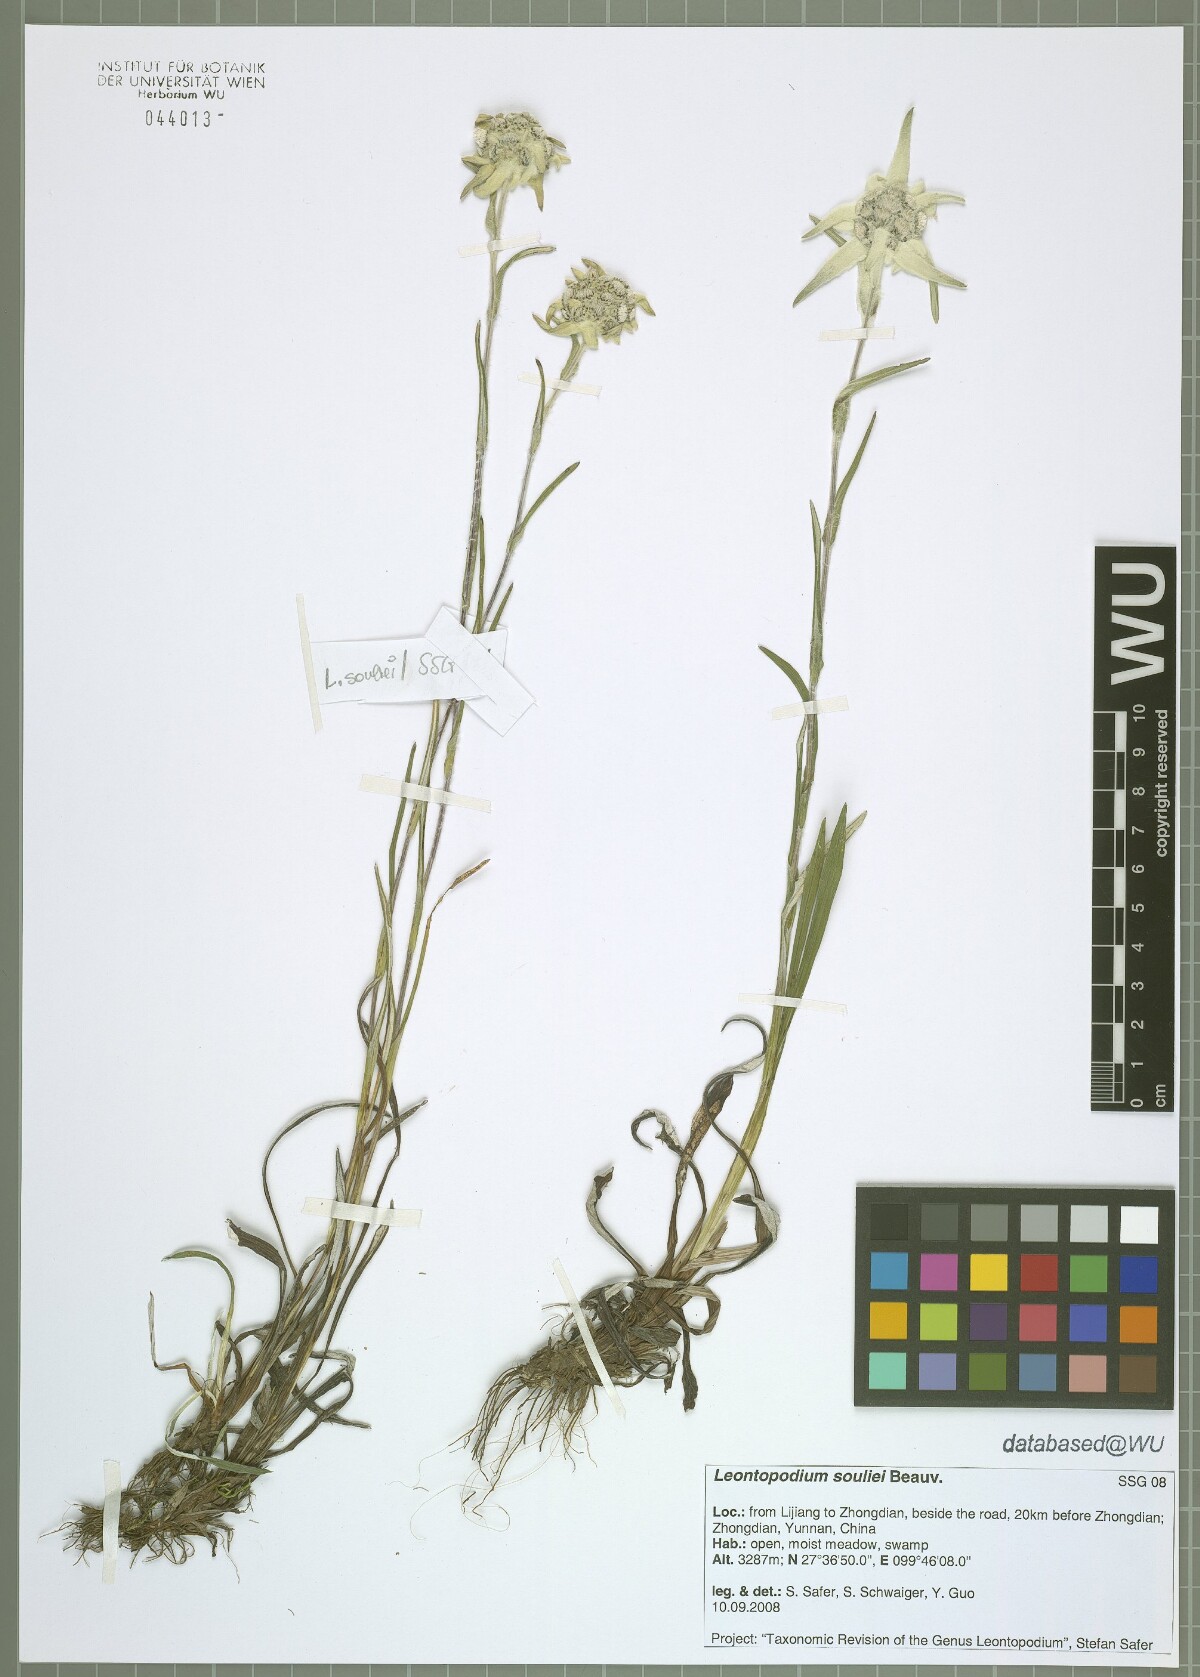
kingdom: Plantae
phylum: Tracheophyta
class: Magnoliopsida
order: Asterales
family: Asteraceae
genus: Leontopodium
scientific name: Leontopodium souliei
